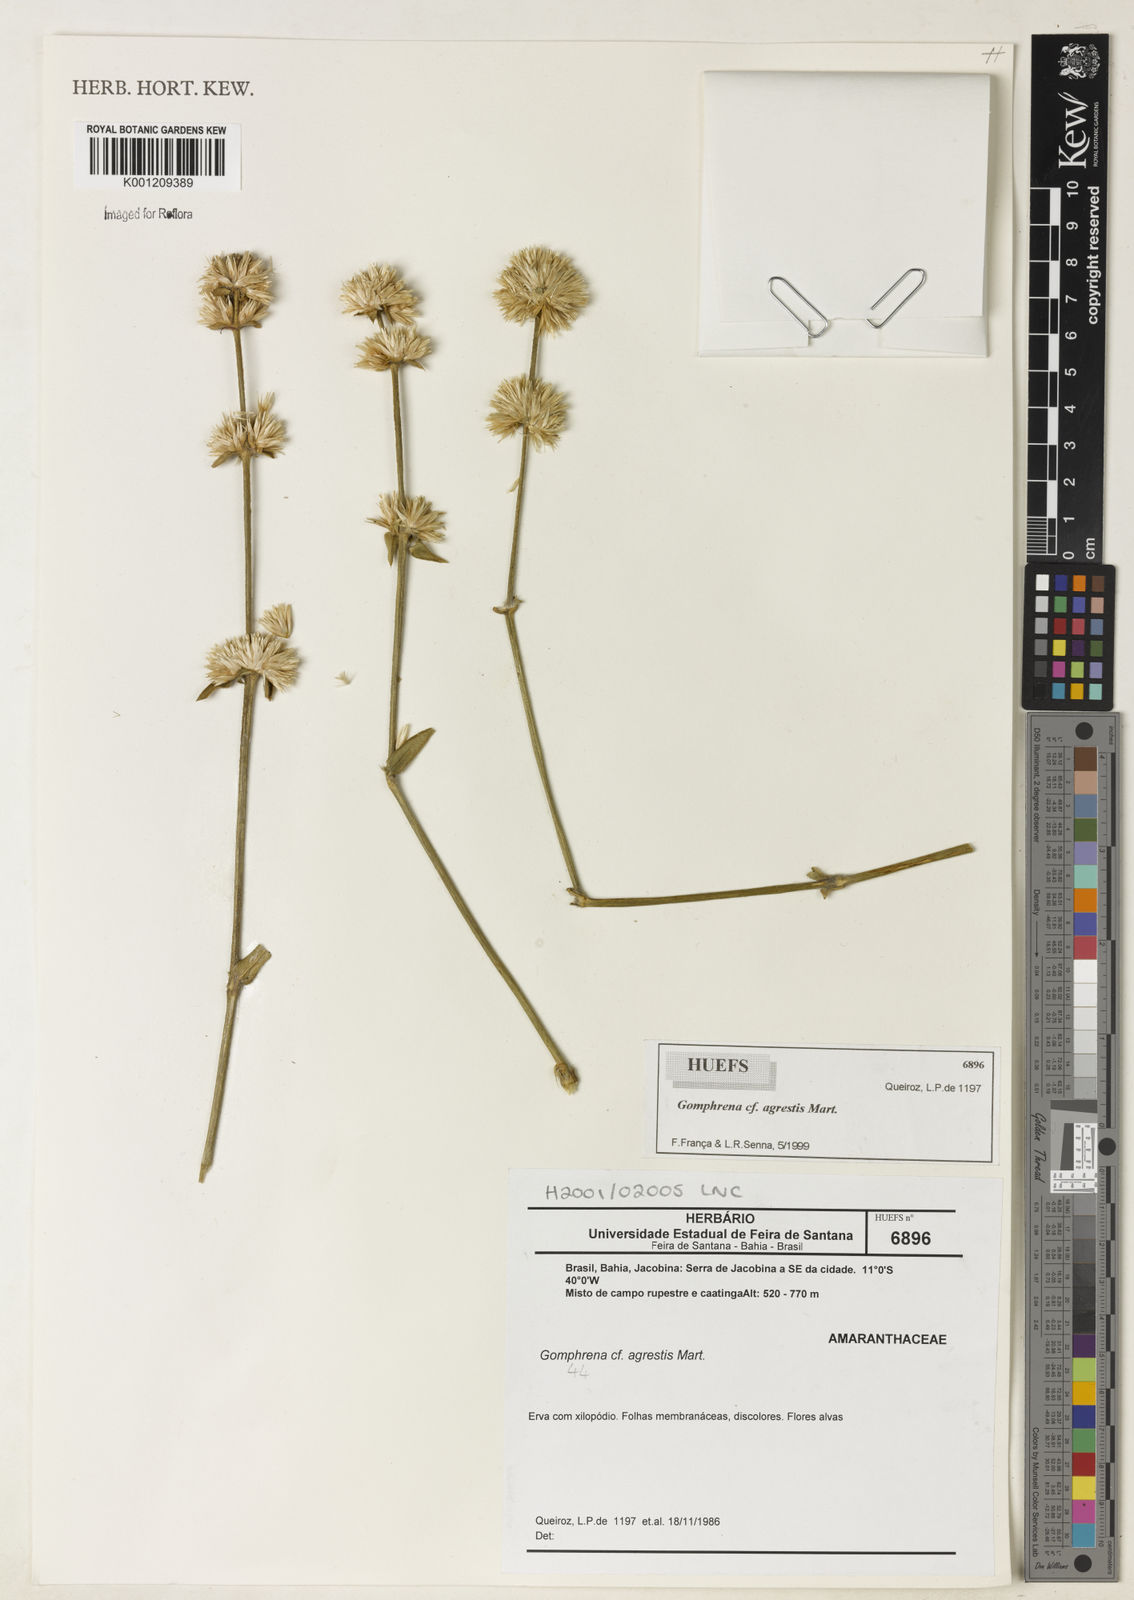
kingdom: Plantae
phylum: Tracheophyta
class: Magnoliopsida
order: Caryophyllales
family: Amaranthaceae
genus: Gomphrena
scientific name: Gomphrena vaga
